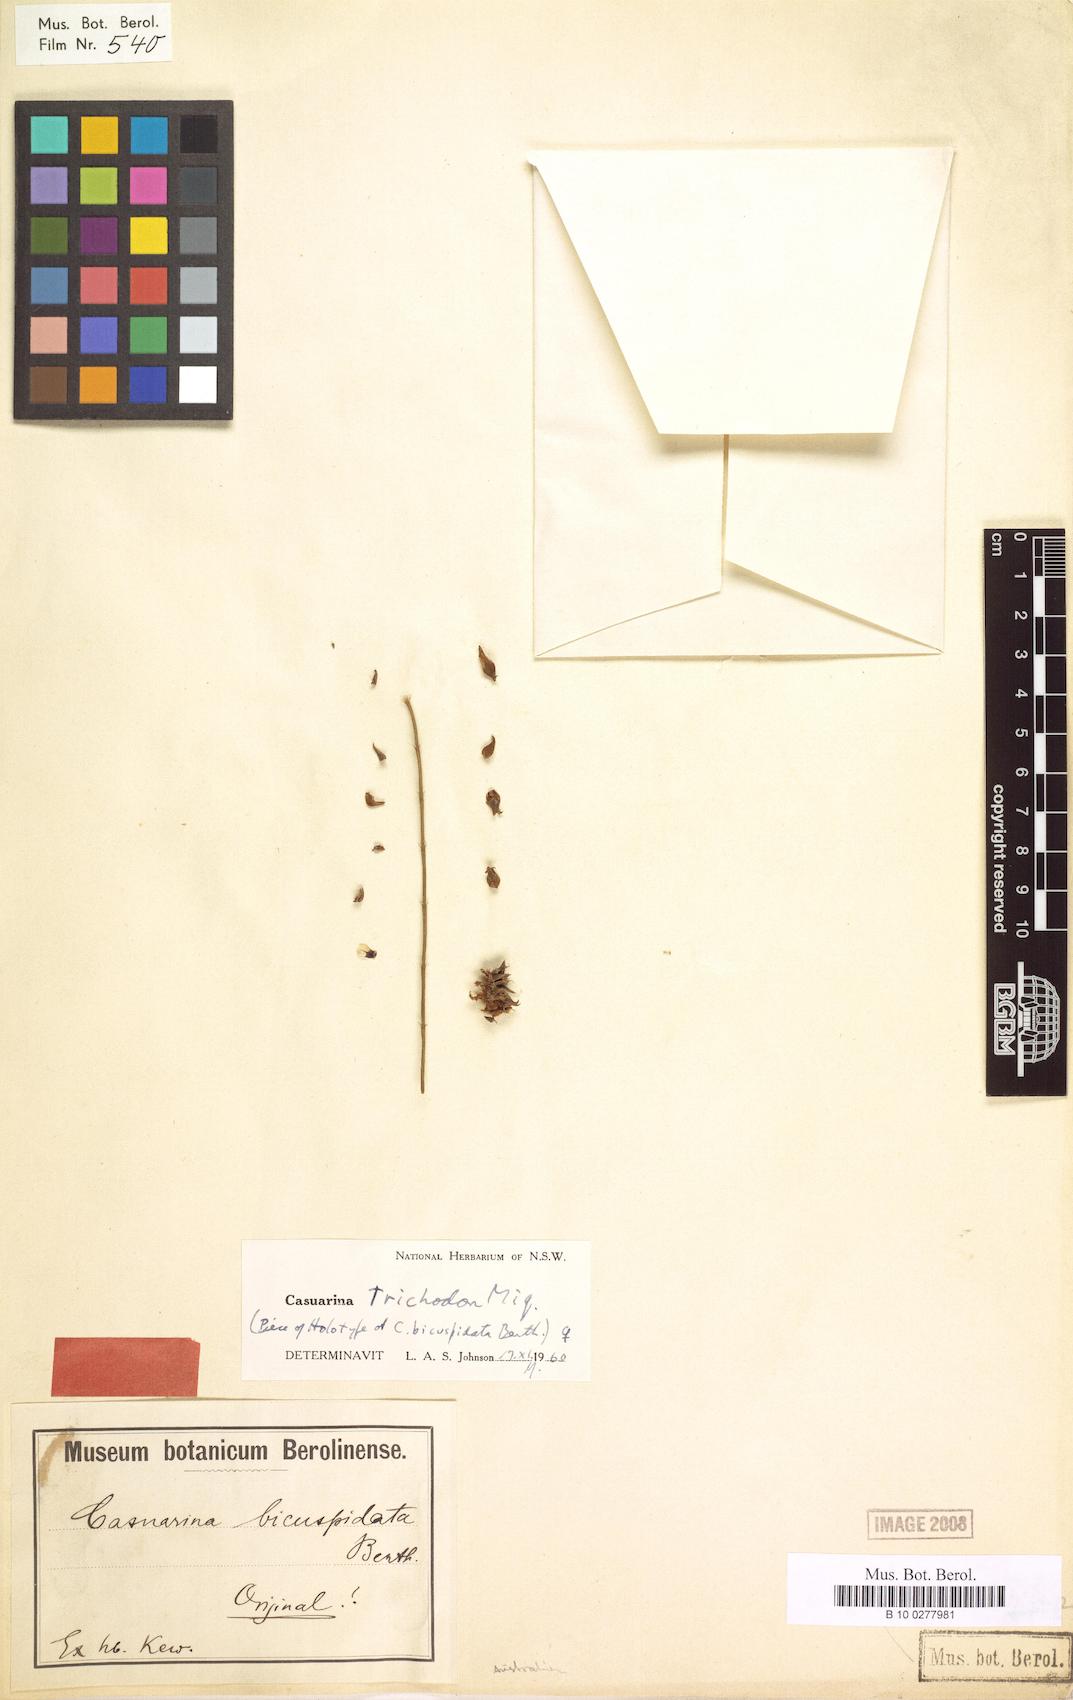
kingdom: Plantae
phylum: Tracheophyta
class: Magnoliopsida
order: Fagales
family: Casuarinaceae
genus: Allocasuarina
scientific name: Allocasuarina trichodon
